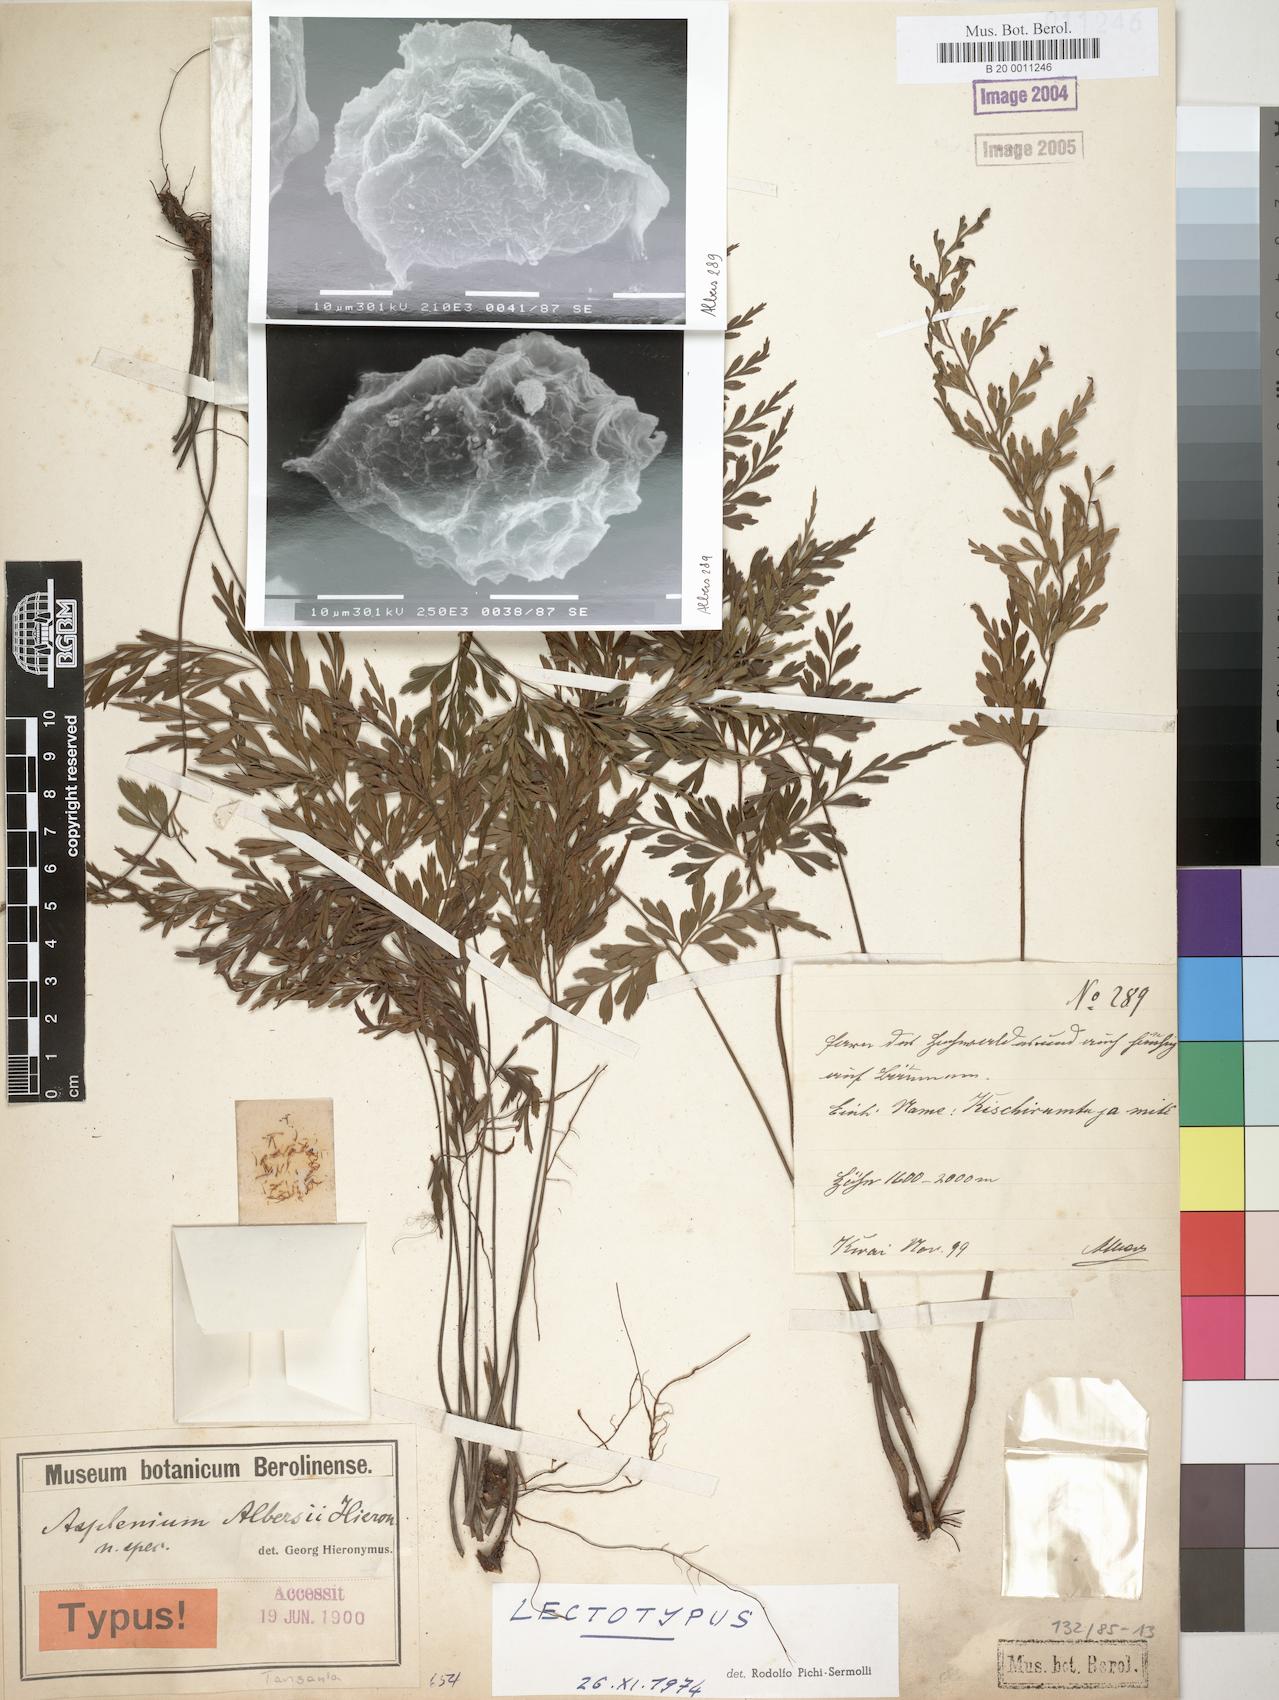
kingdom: Plantae
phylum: Tracheophyta
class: Polypodiopsida
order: Polypodiales
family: Aspleniaceae
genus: Asplenium
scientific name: Asplenium albersii
